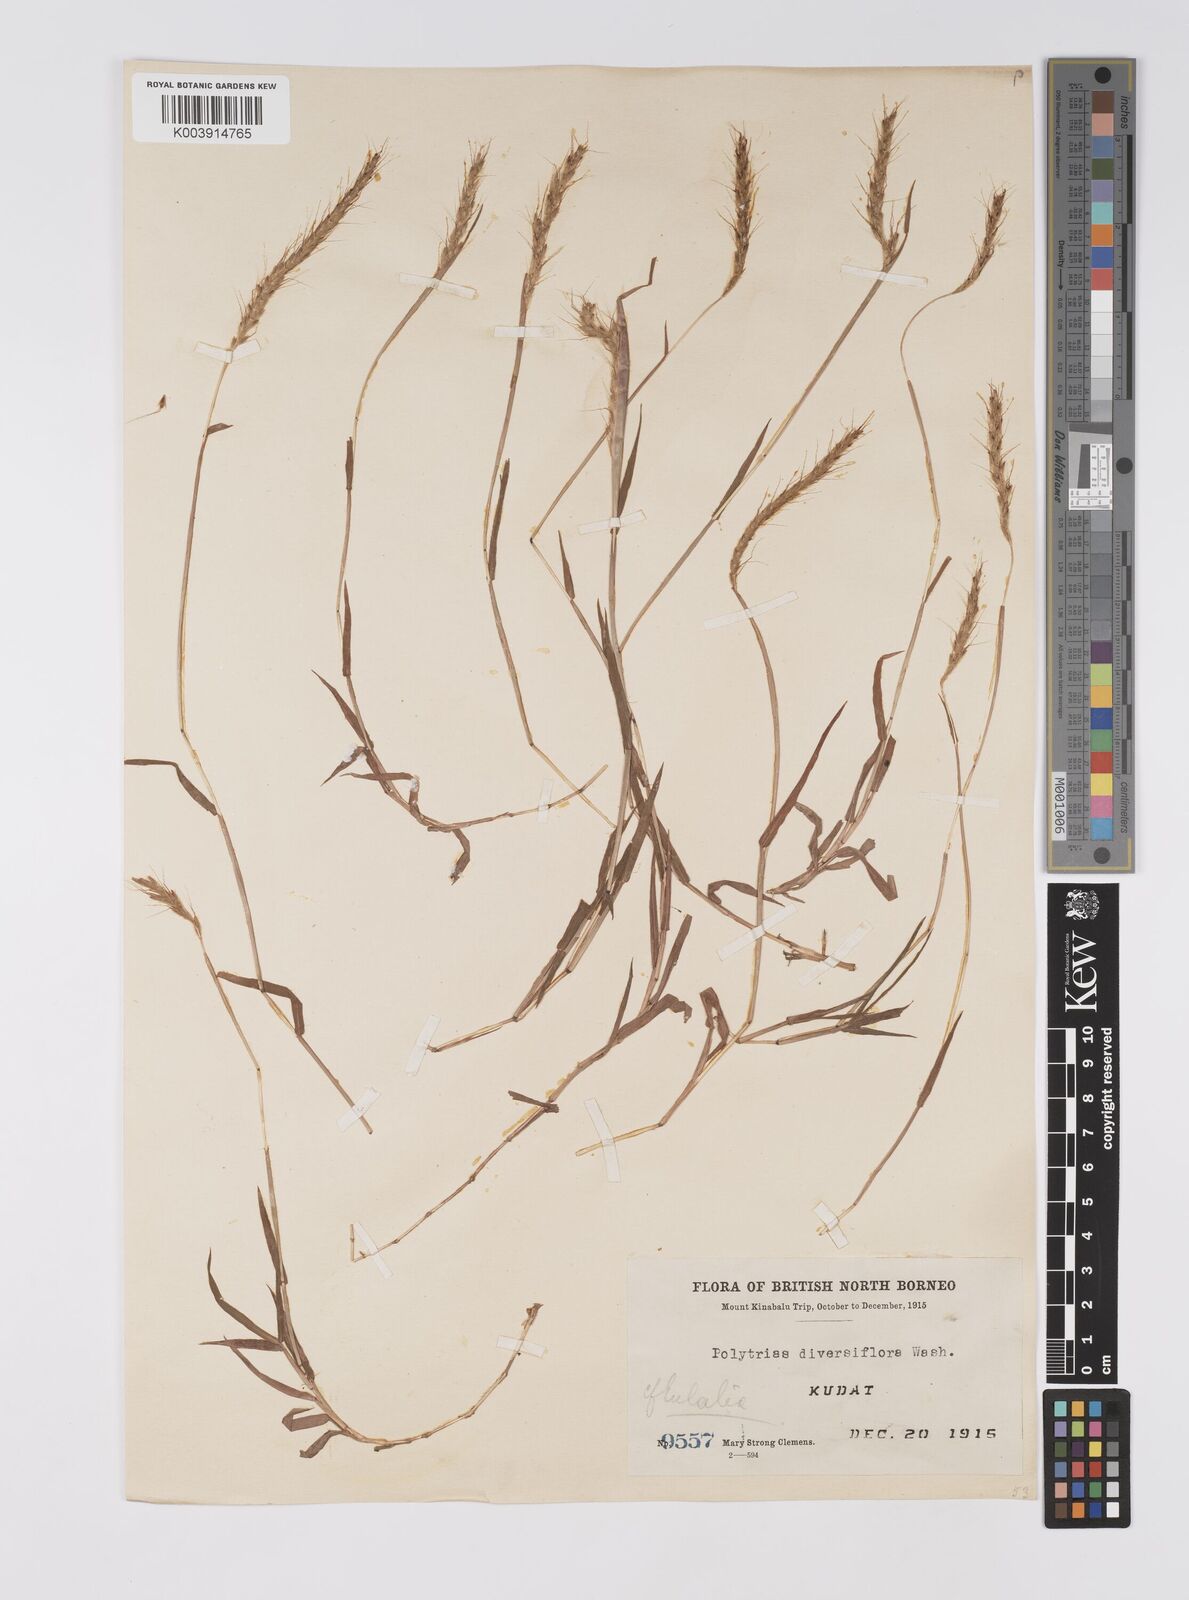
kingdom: Plantae
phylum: Tracheophyta
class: Liliopsida
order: Poales
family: Poaceae
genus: Polytrias
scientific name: Polytrias
